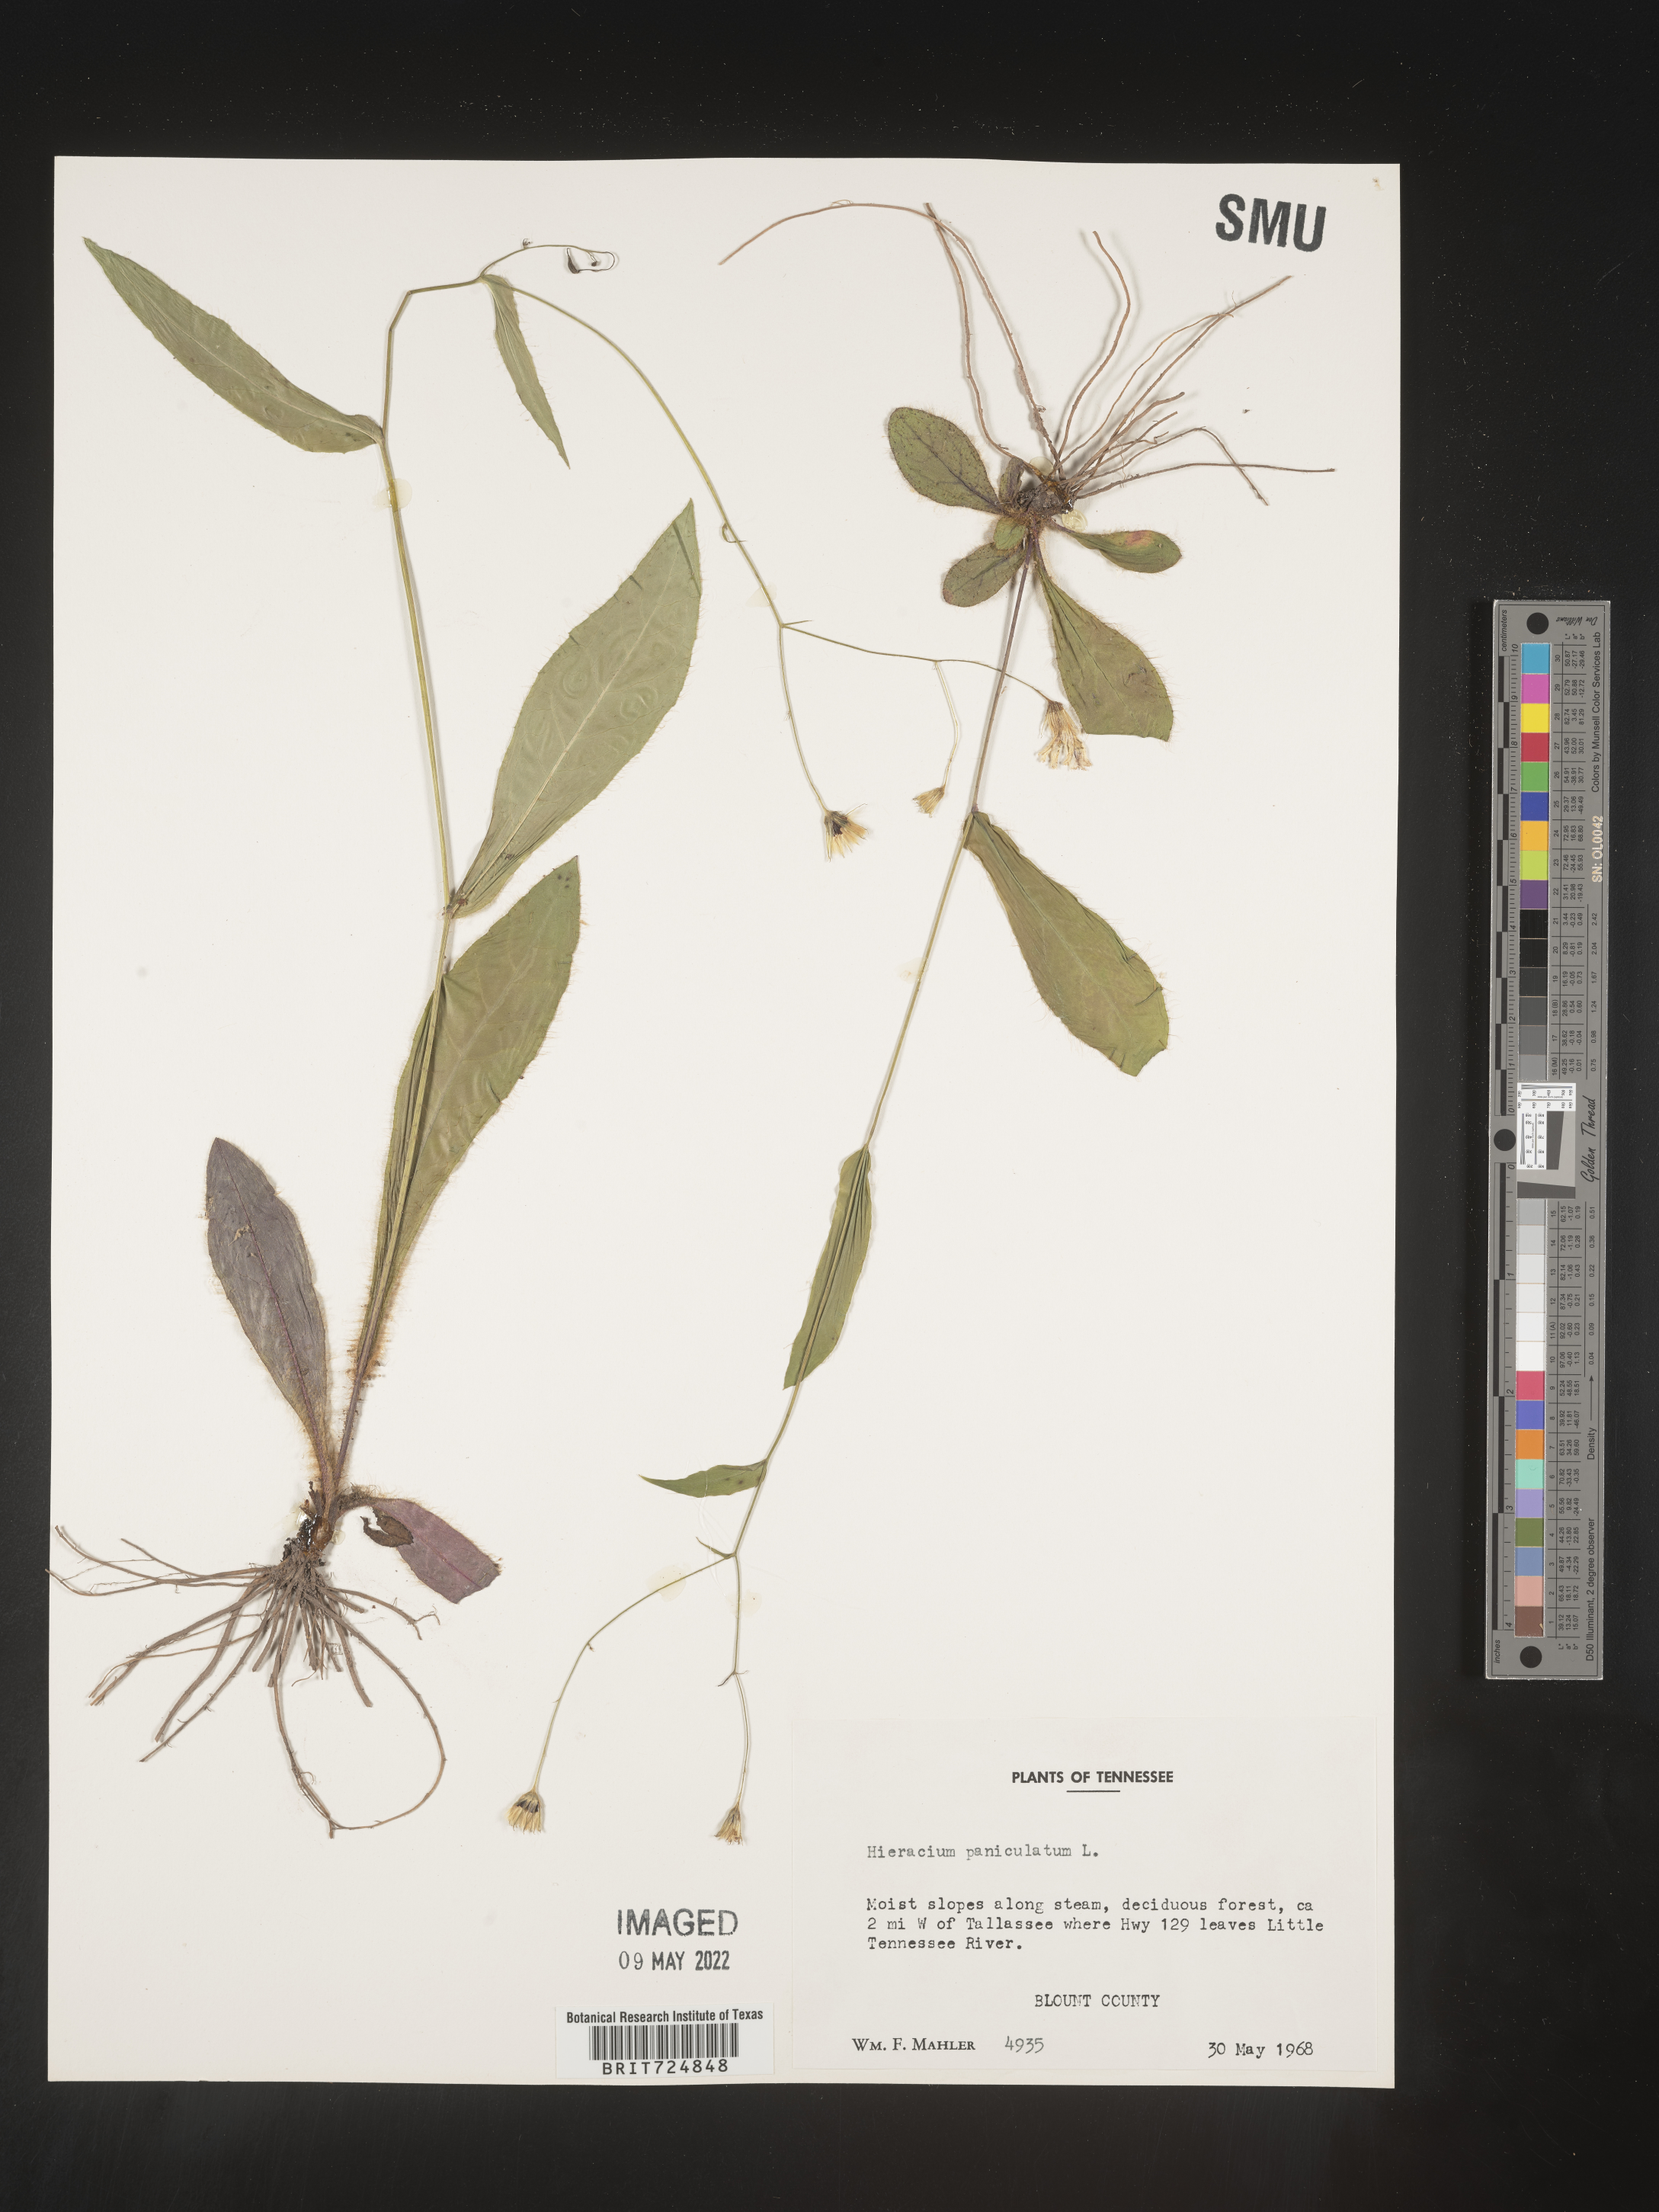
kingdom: Plantae
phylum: Tracheophyta
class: Magnoliopsida
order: Asterales
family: Asteraceae
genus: Hieracium
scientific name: Hieracium paniculatum
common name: Allegheny hawkweed
